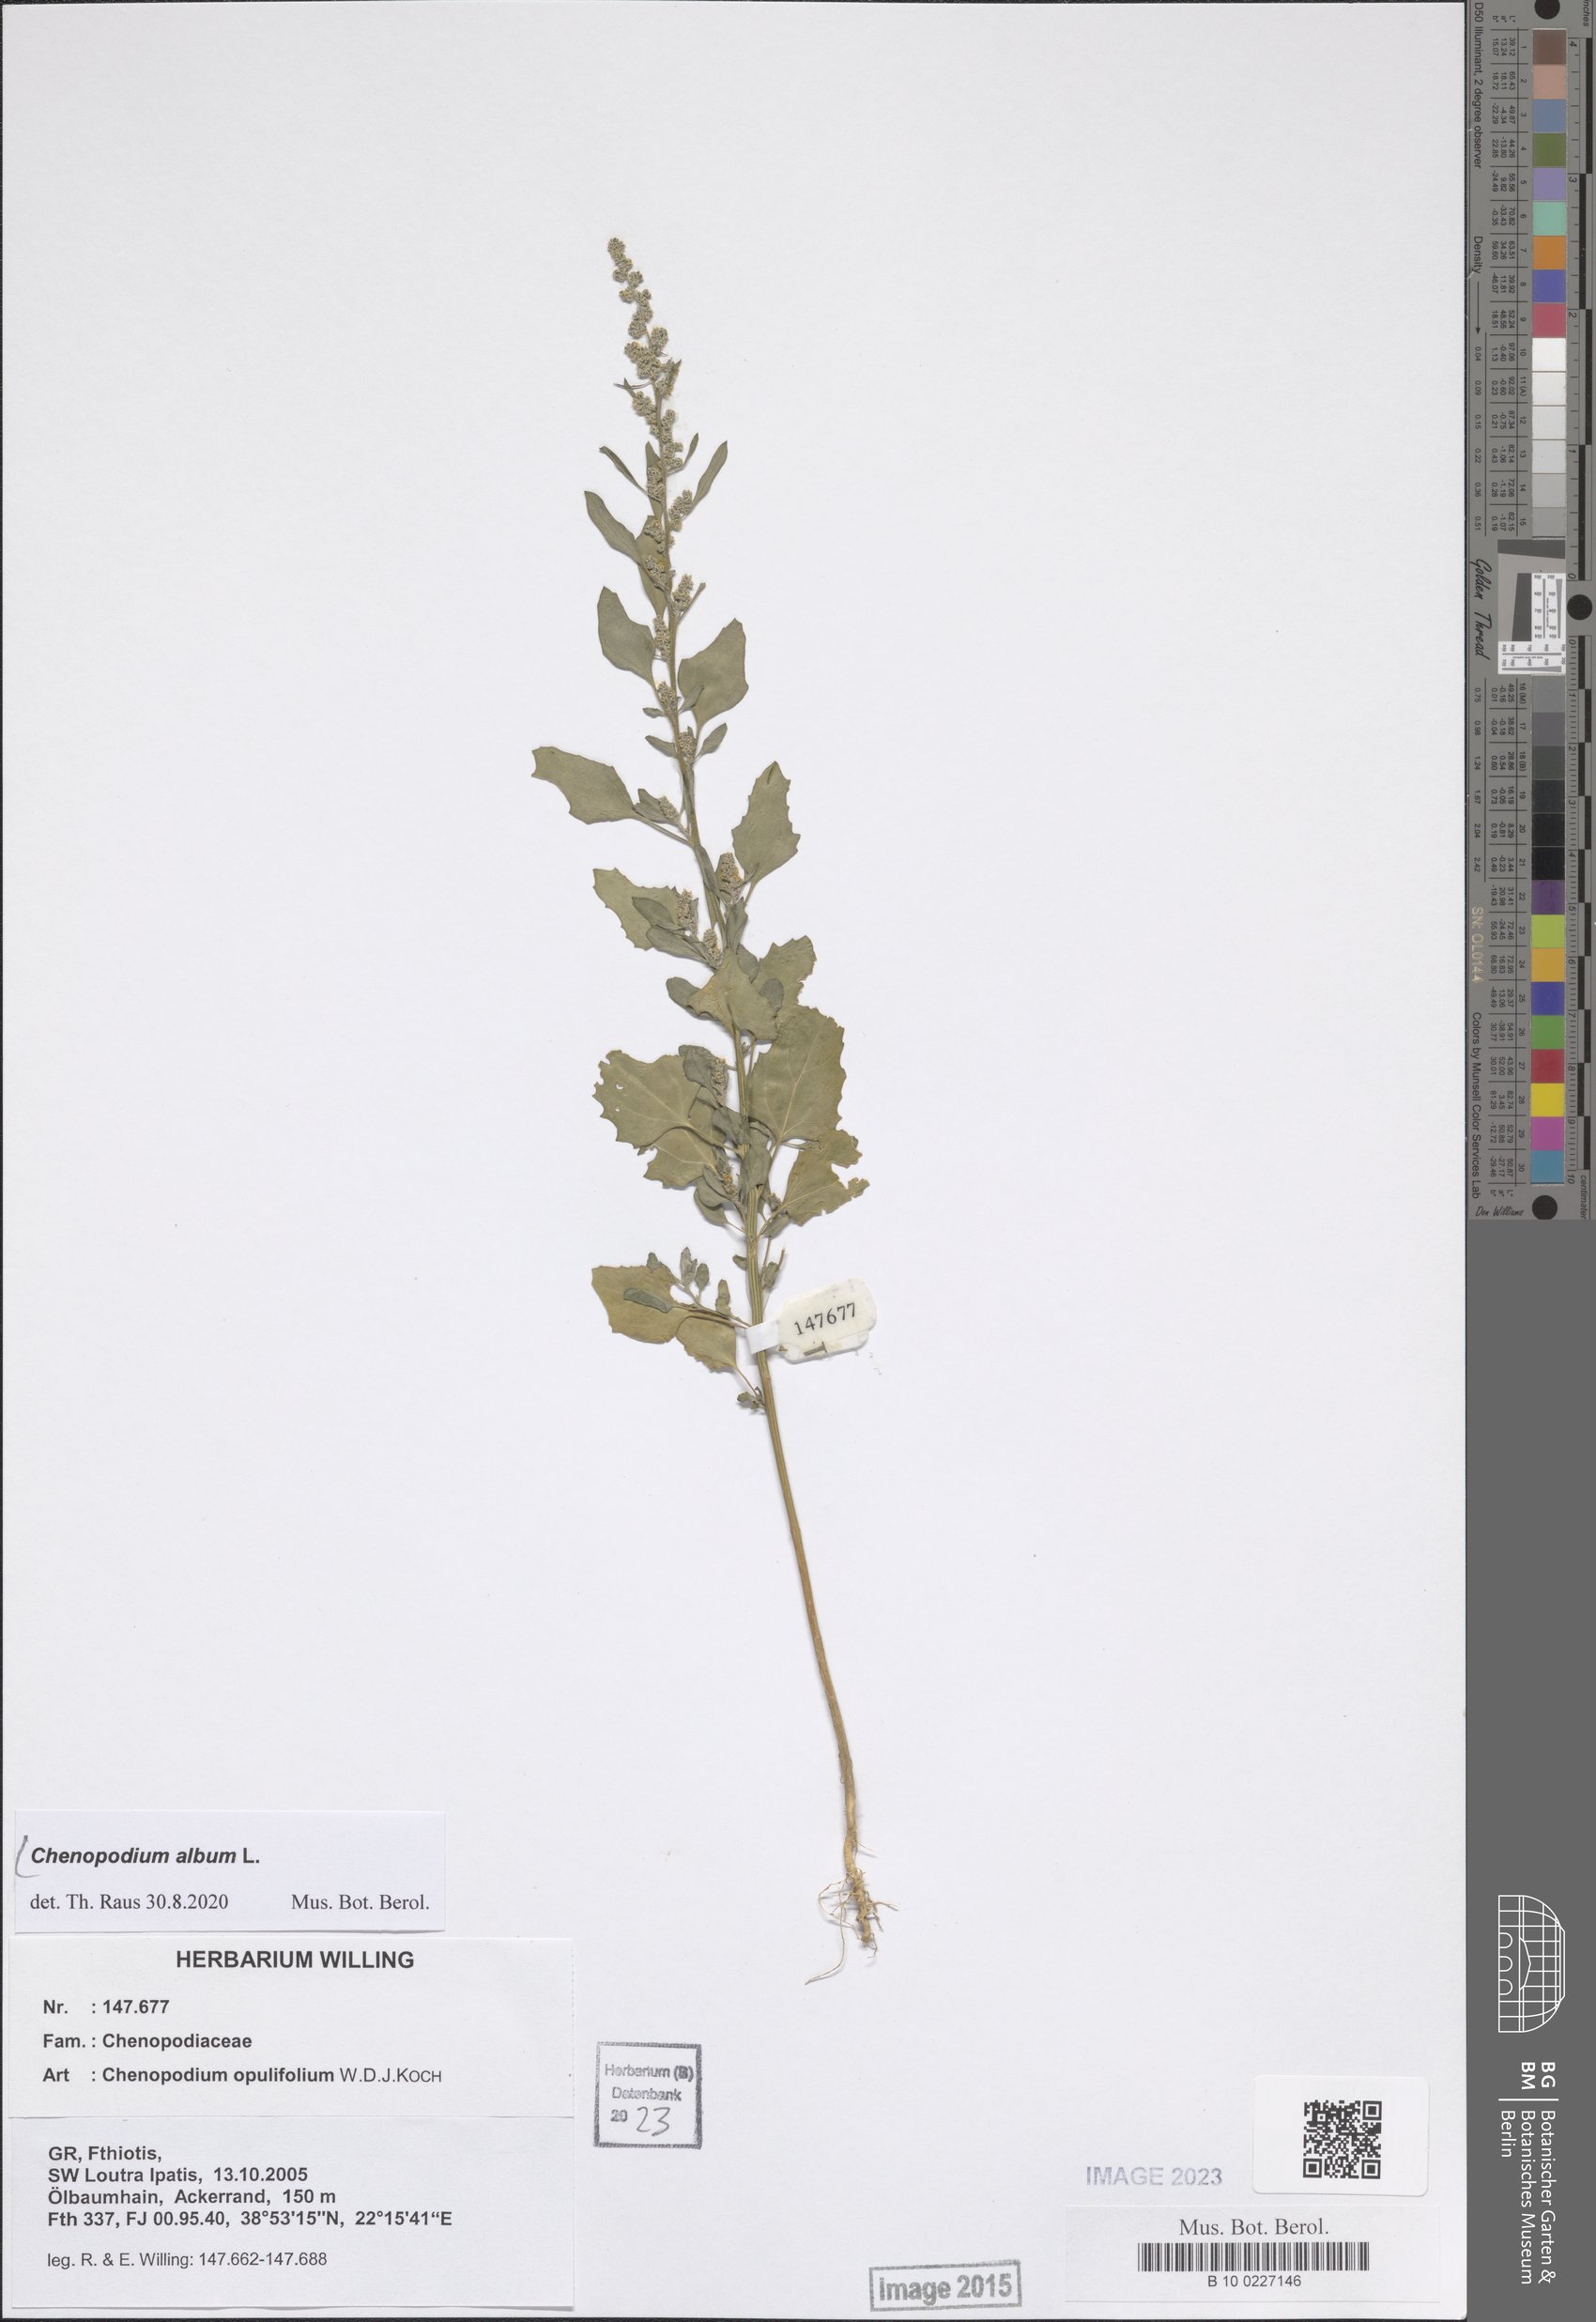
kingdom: Plantae
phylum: Tracheophyta
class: Magnoliopsida
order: Caryophyllales
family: Amaranthaceae
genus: Chenopodium
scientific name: Chenopodium album
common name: Fat-hen
